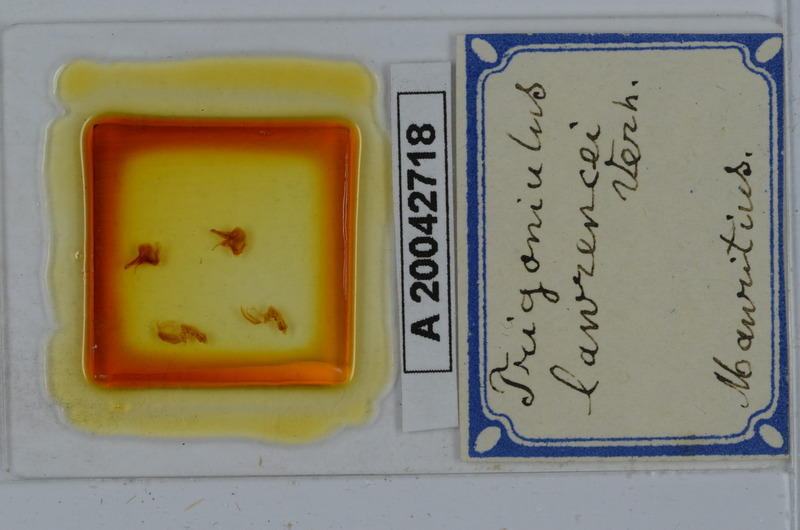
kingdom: Animalia
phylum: Arthropoda
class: Diplopoda
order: Spirobolida
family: Pachybolidae
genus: Leptogoniulus
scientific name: Leptogoniulus sorornus
